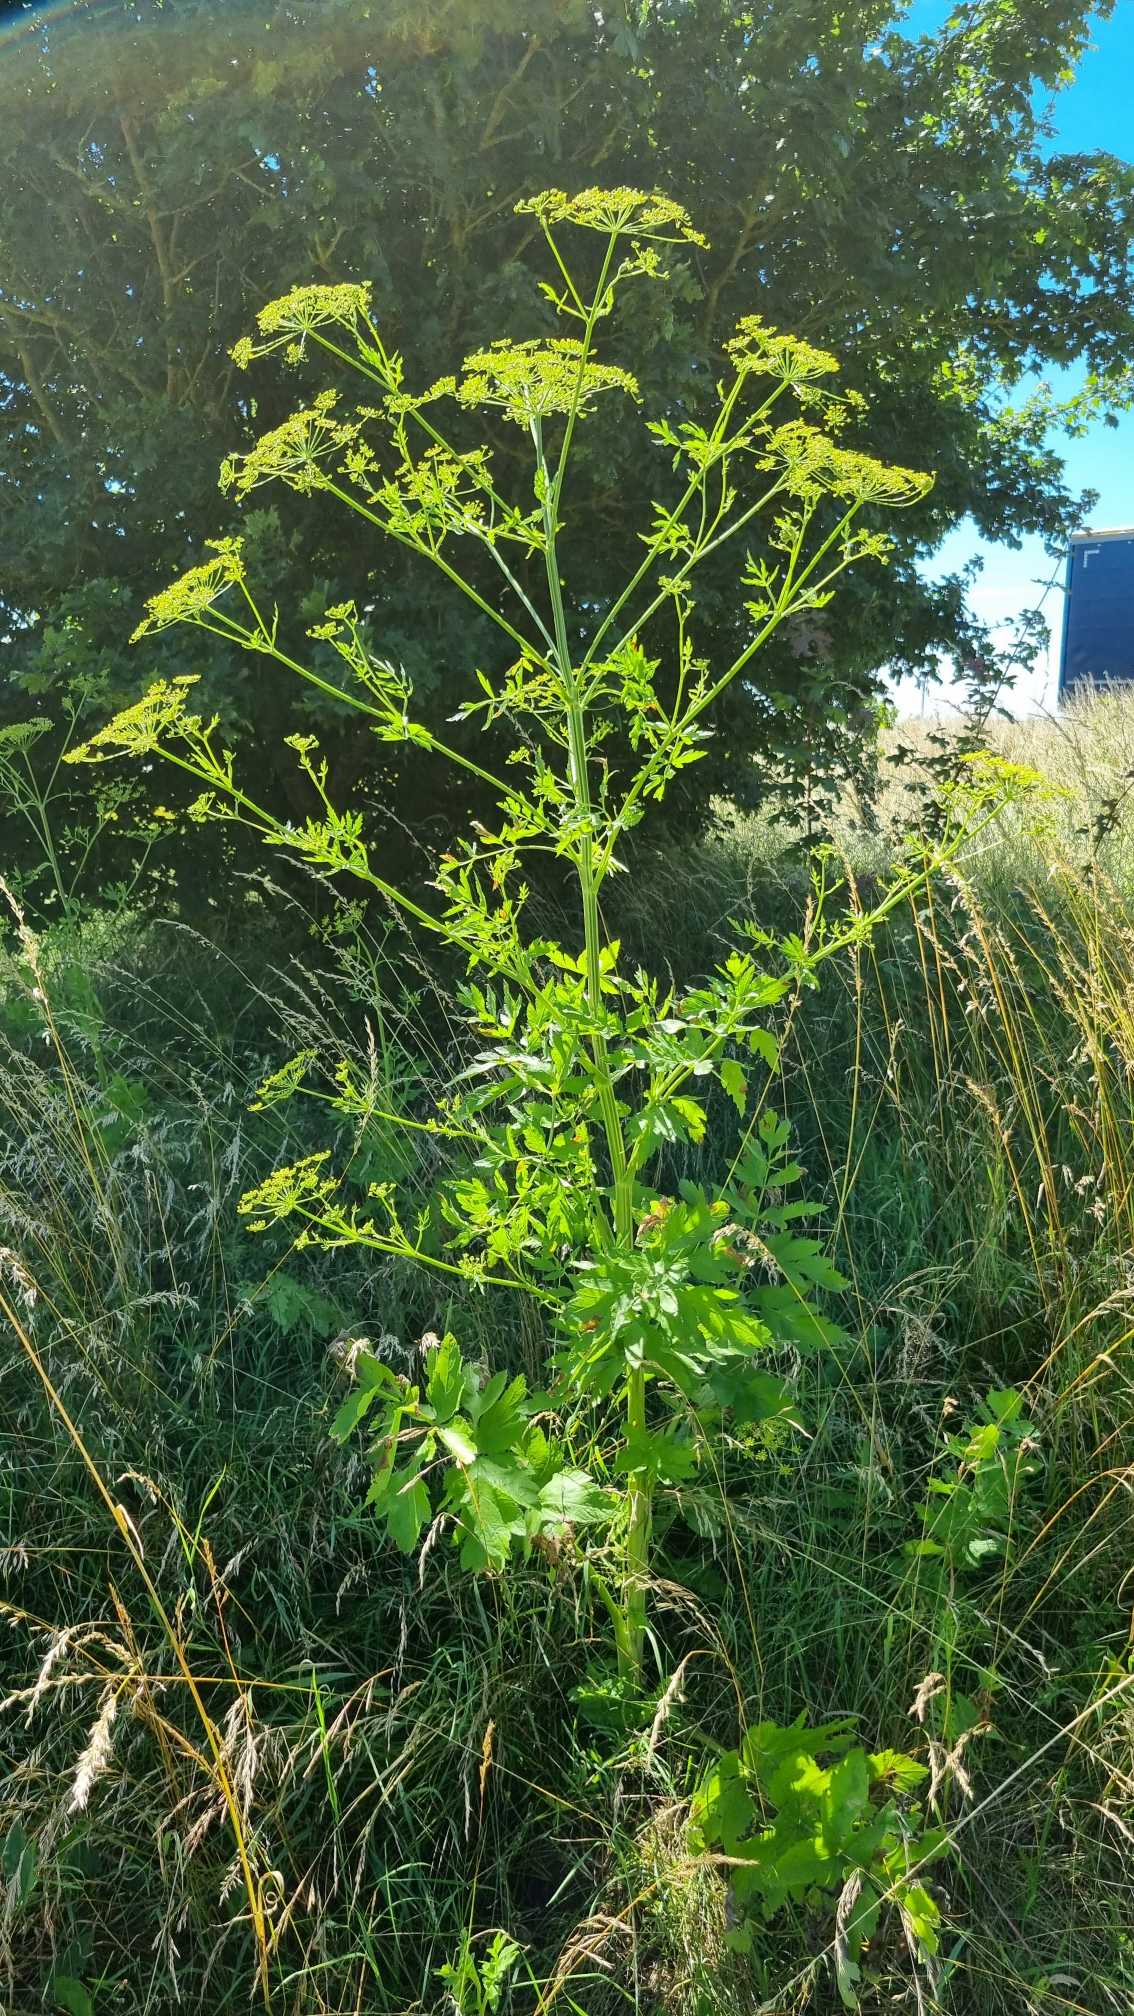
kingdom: Plantae
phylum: Tracheophyta
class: Magnoliopsida
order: Apiales
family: Apiaceae
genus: Pastinaca
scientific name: Pastinaca sativa
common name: Pastinak
